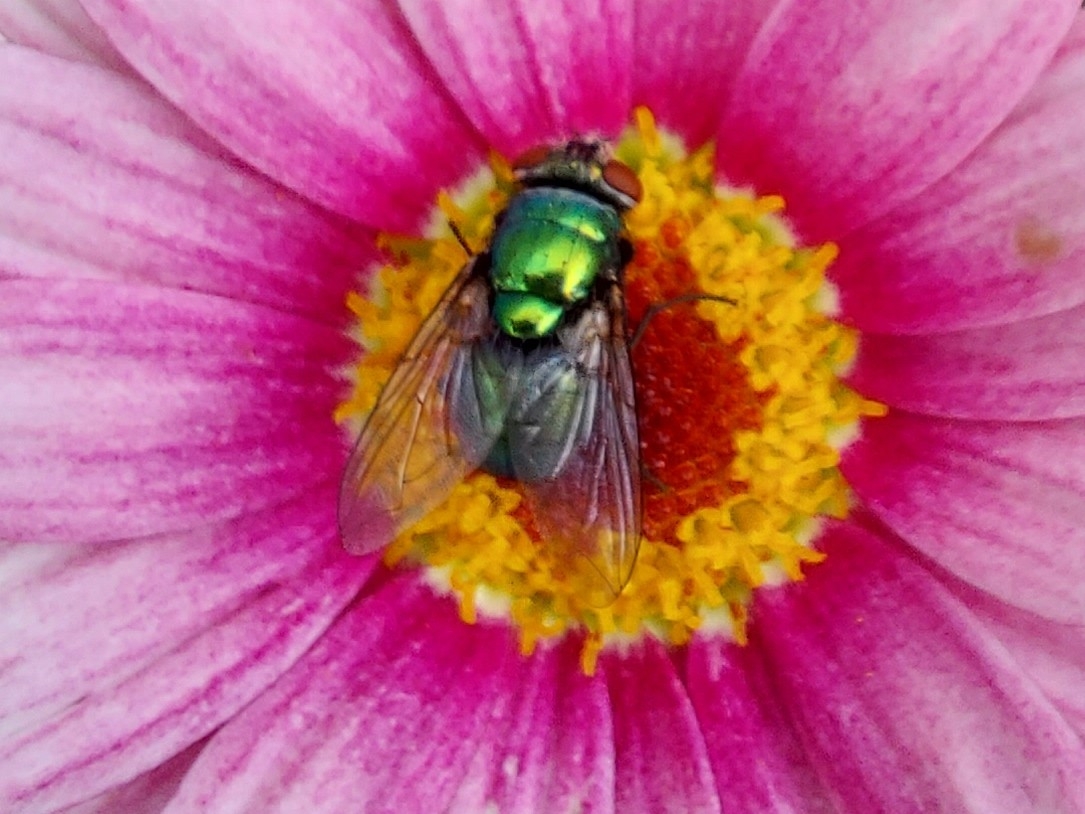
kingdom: Animalia
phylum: Arthropoda
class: Insecta
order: Diptera
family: Calliphoridae
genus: Lucilia
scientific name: Lucilia
